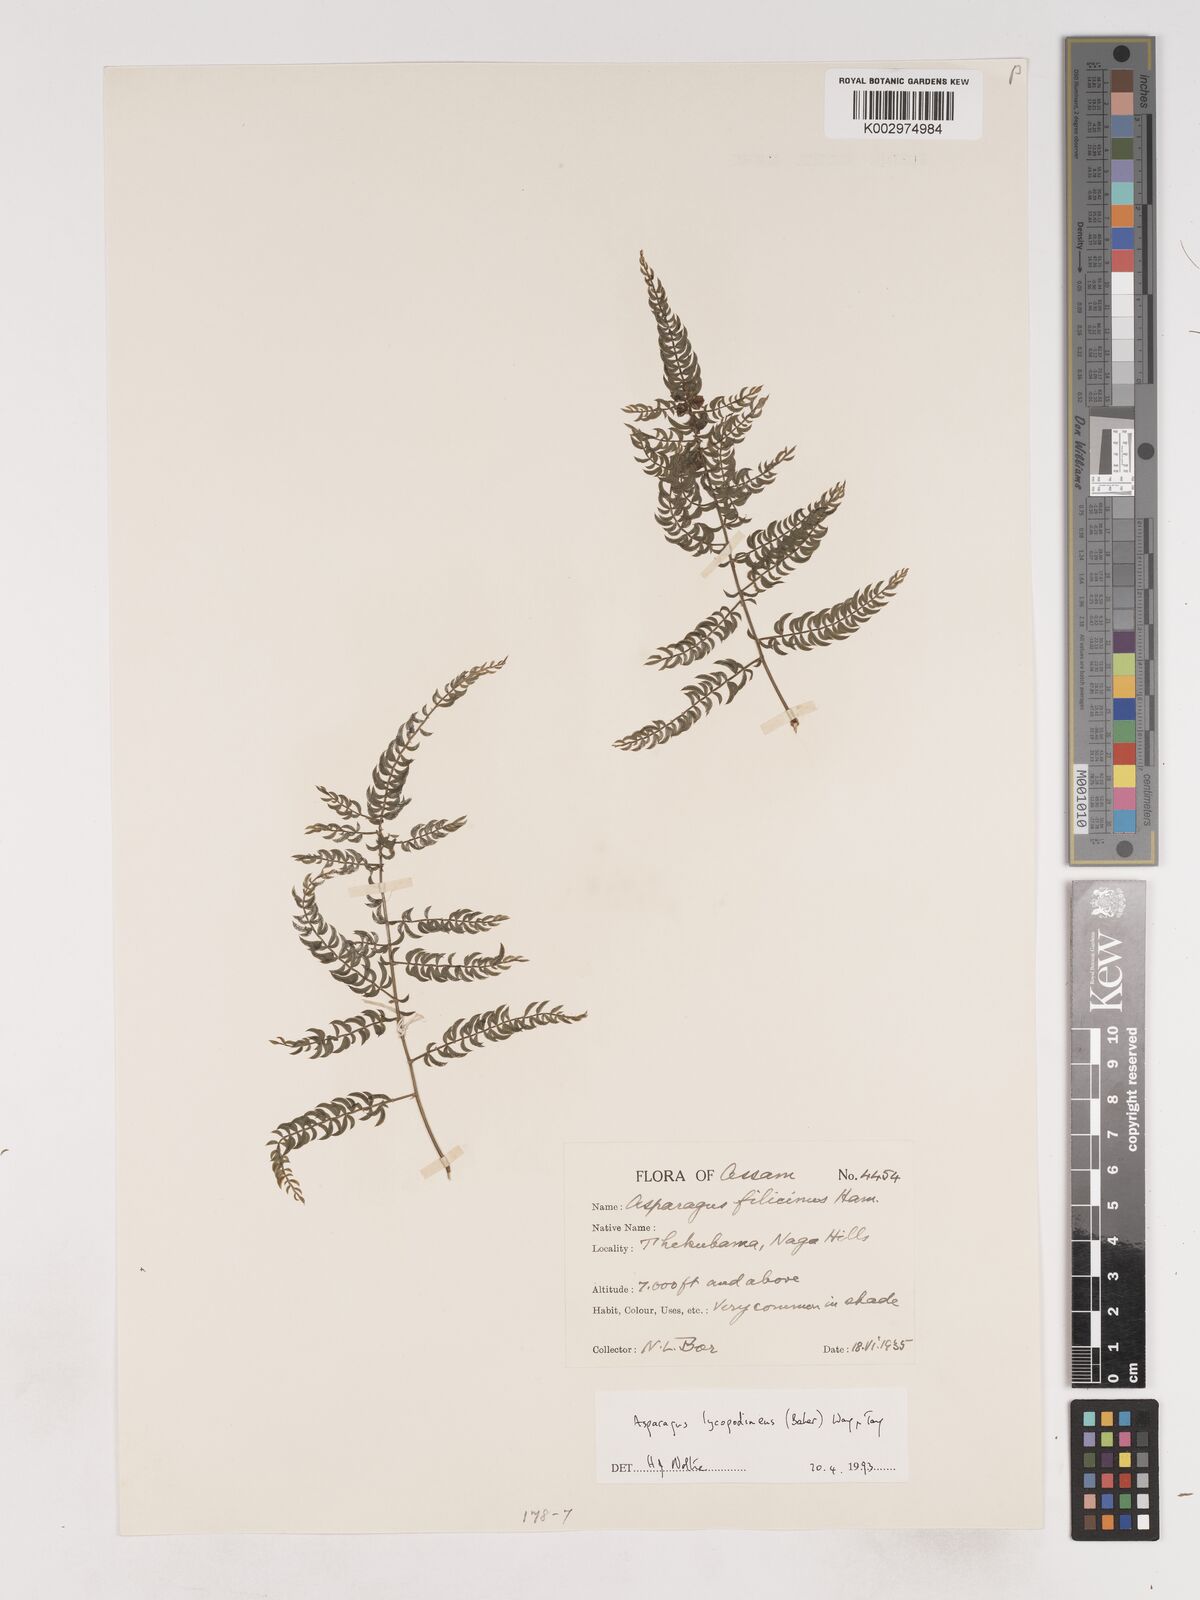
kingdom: Plantae
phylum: Tracheophyta
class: Liliopsida
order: Asparagales
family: Asparagaceae
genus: Asparagus
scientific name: Asparagus filicinus
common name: Fern asparagus
